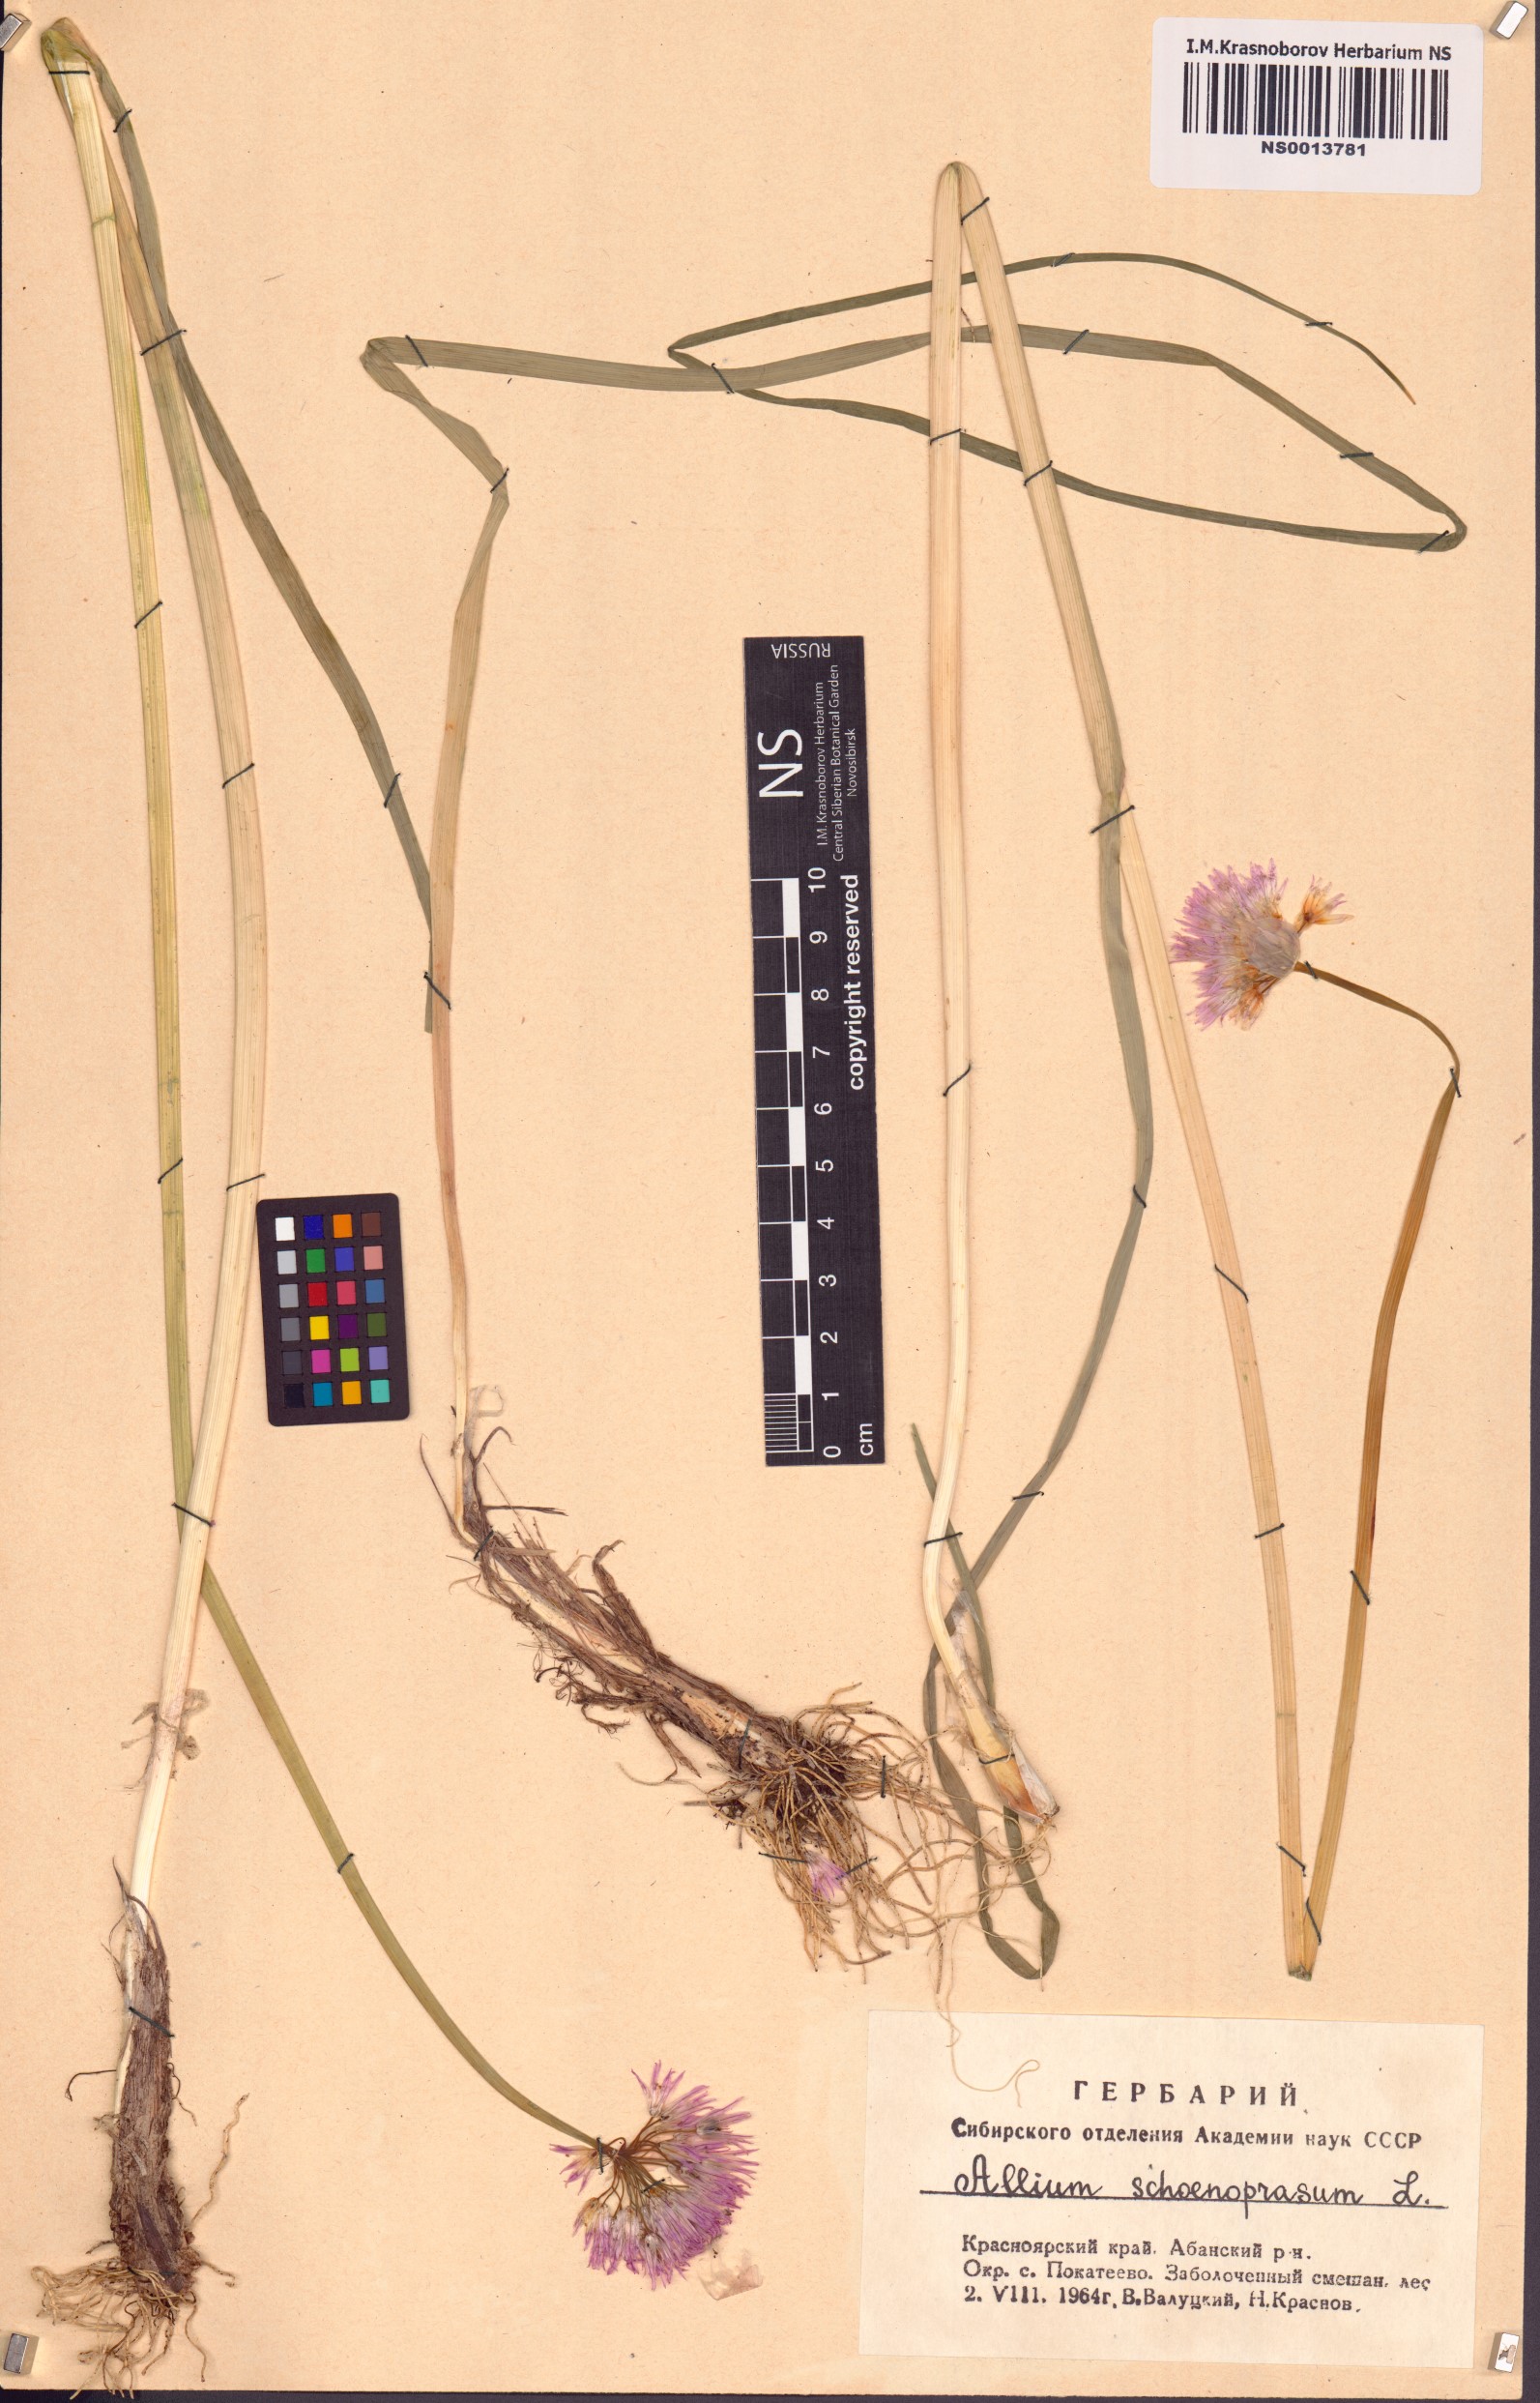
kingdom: Plantae
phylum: Tracheophyta
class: Liliopsida
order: Asparagales
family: Amaryllidaceae
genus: Allium
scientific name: Allium schoenoprasum
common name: Chives
